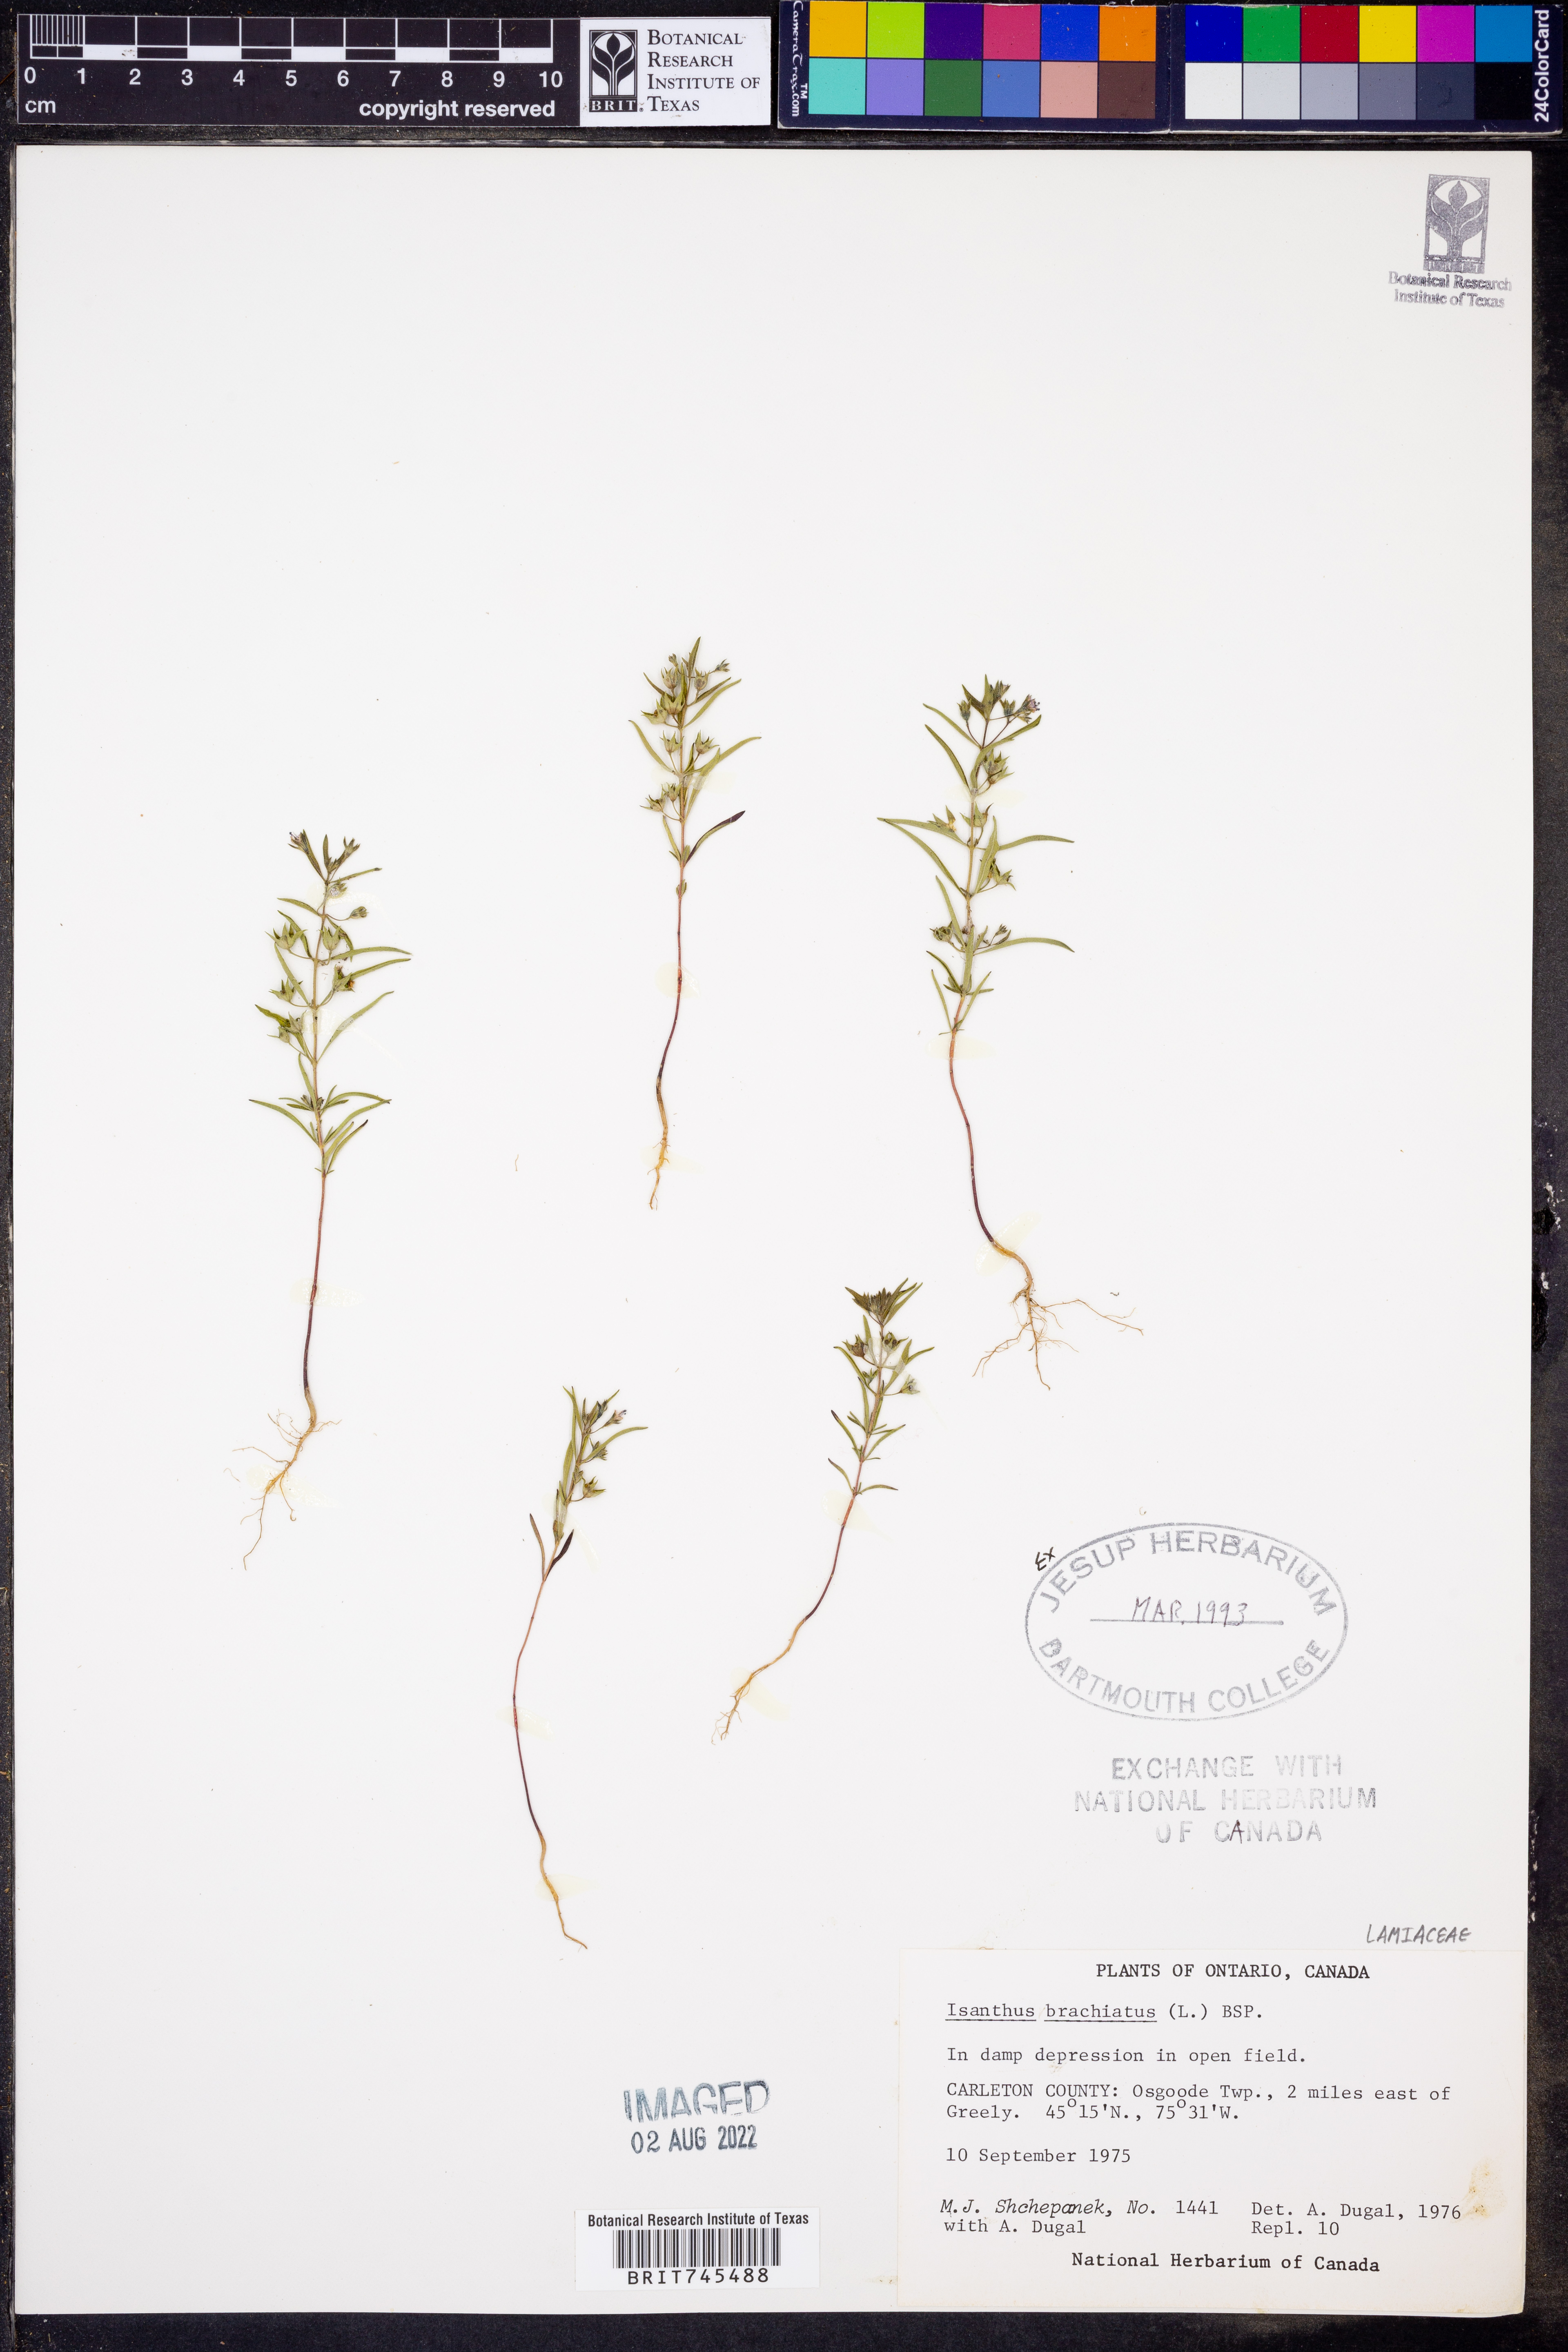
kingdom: Plantae
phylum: Tracheophyta
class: Magnoliopsida
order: Lamiales
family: Lamiaceae
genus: Trichostema
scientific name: Trichostema brachiatum
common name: False pennyroyal
